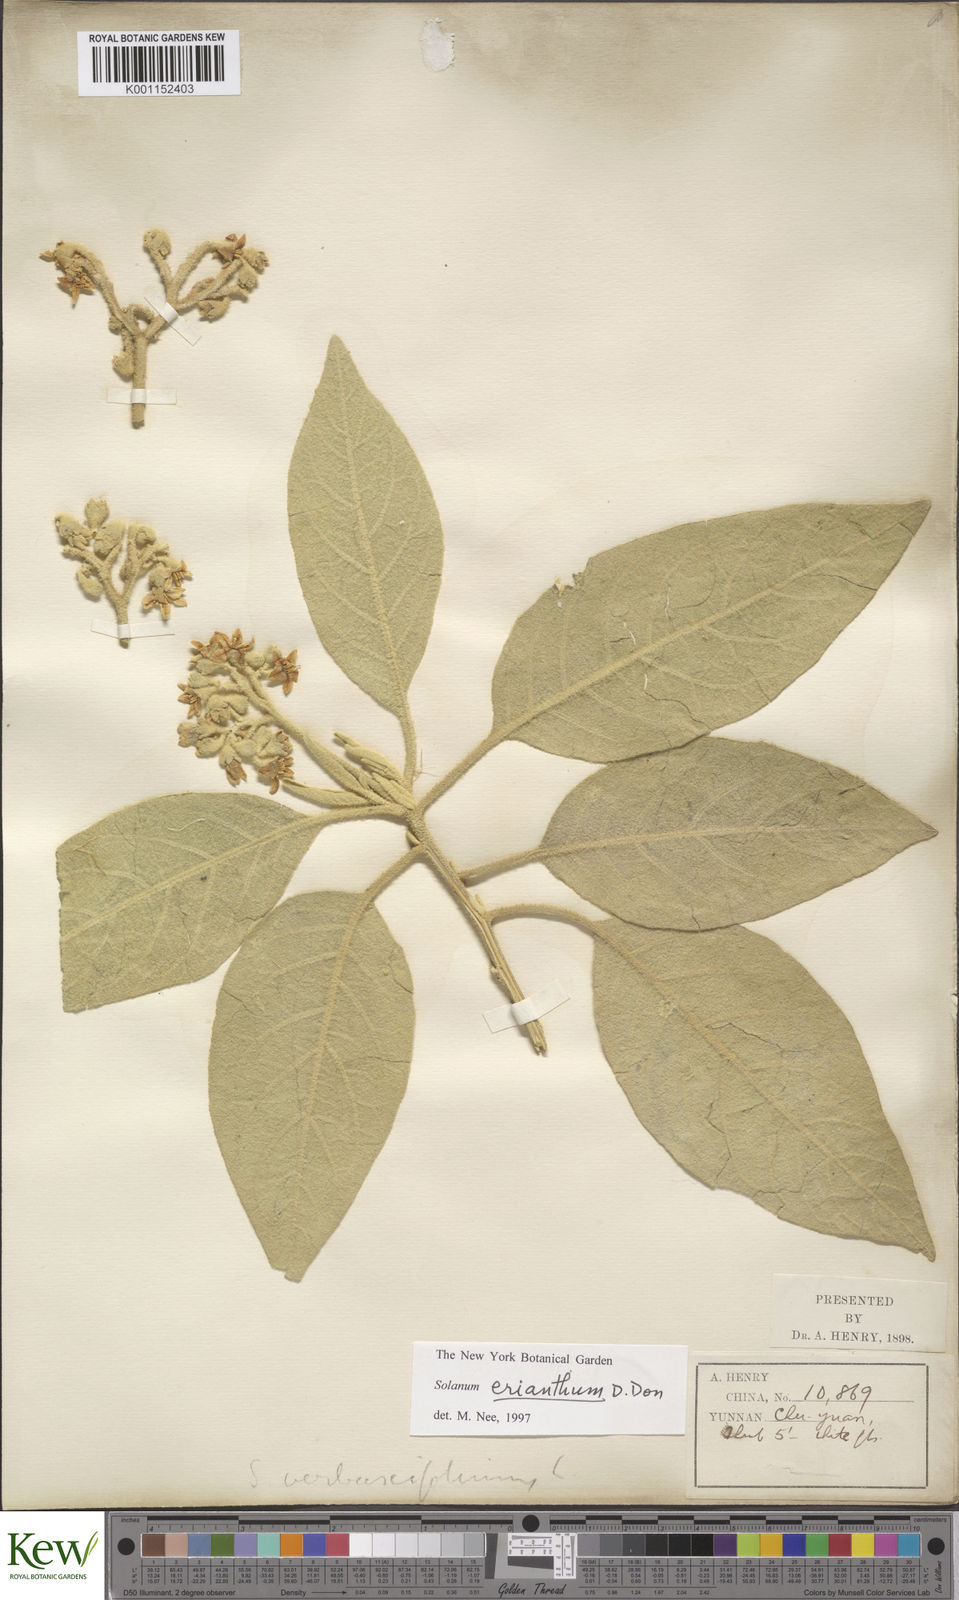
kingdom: Plantae
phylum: Tracheophyta
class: Magnoliopsida
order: Solanales
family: Solanaceae
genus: Solanum
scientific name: Solanum donianum
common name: Mullein nightshade
